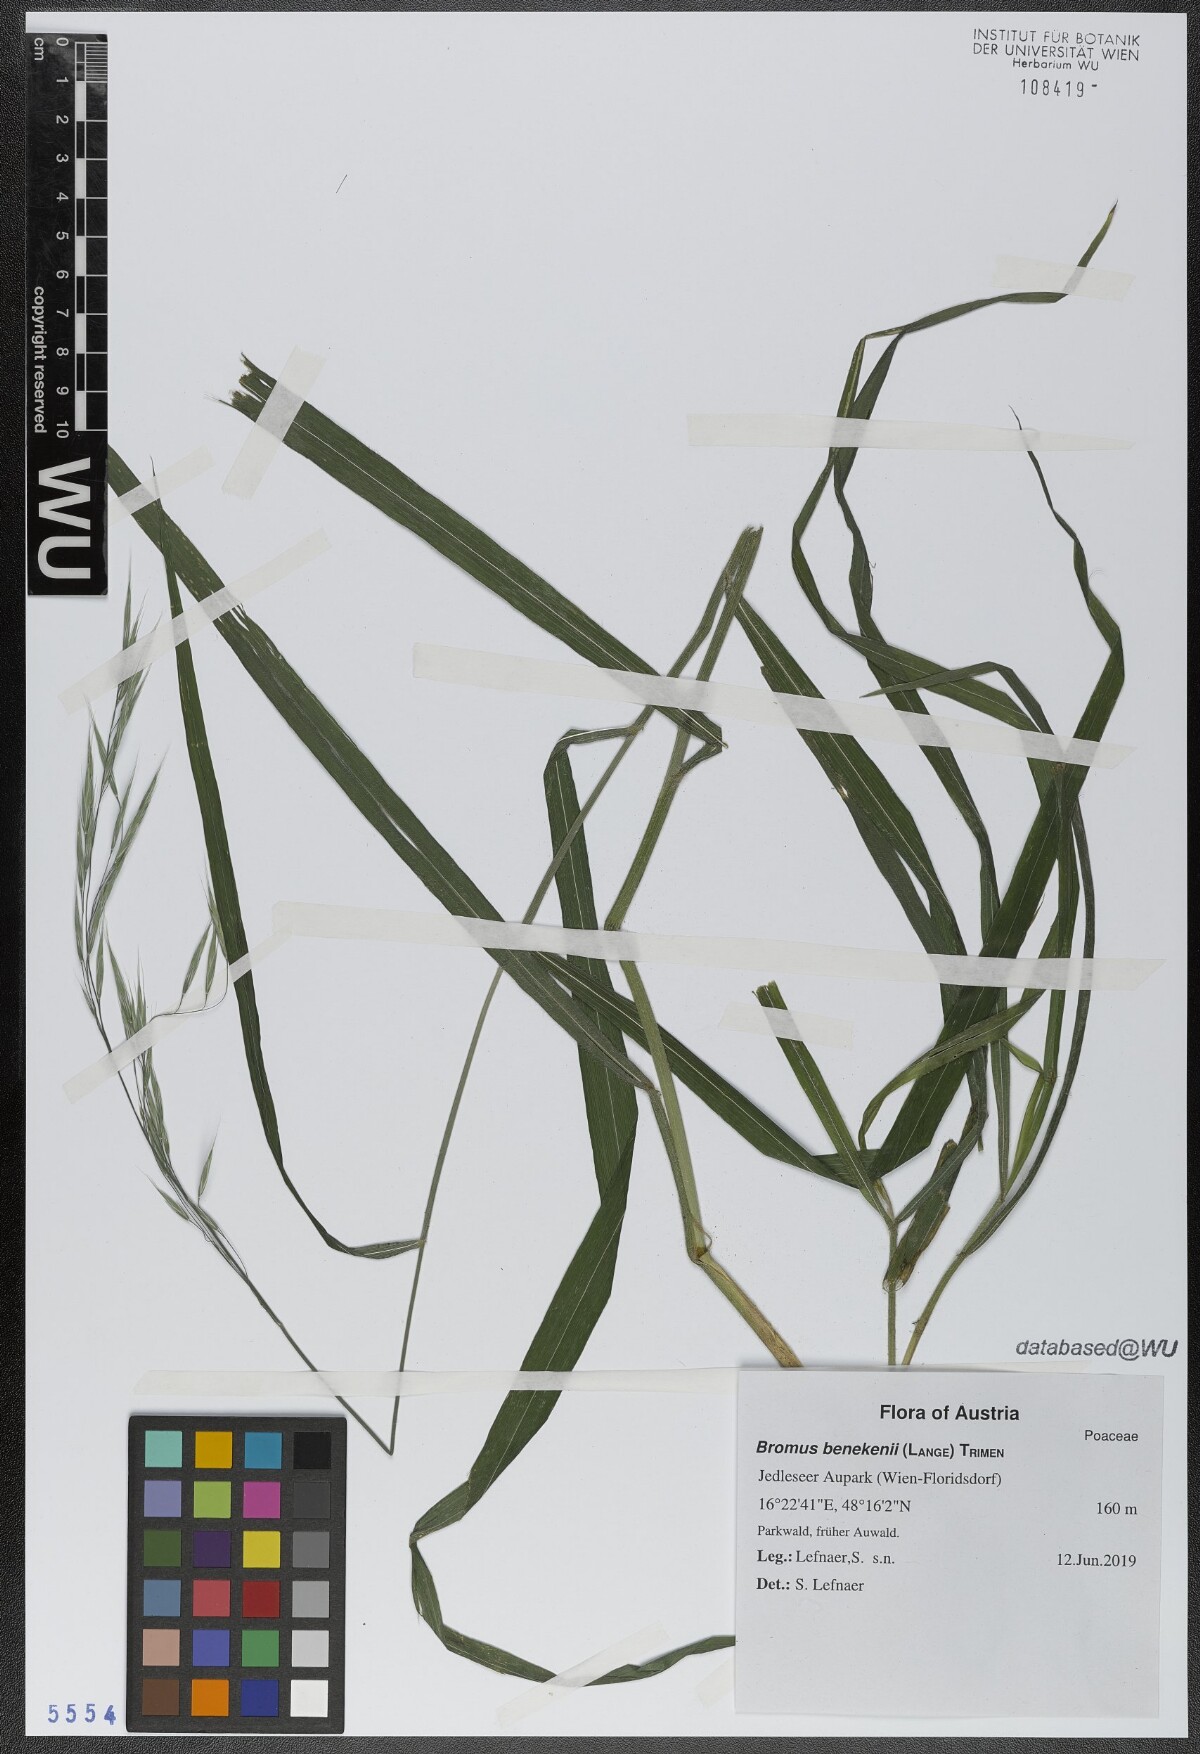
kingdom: Plantae
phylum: Tracheophyta
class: Liliopsida
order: Poales
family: Poaceae
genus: Bromus
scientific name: Bromus benekenii
